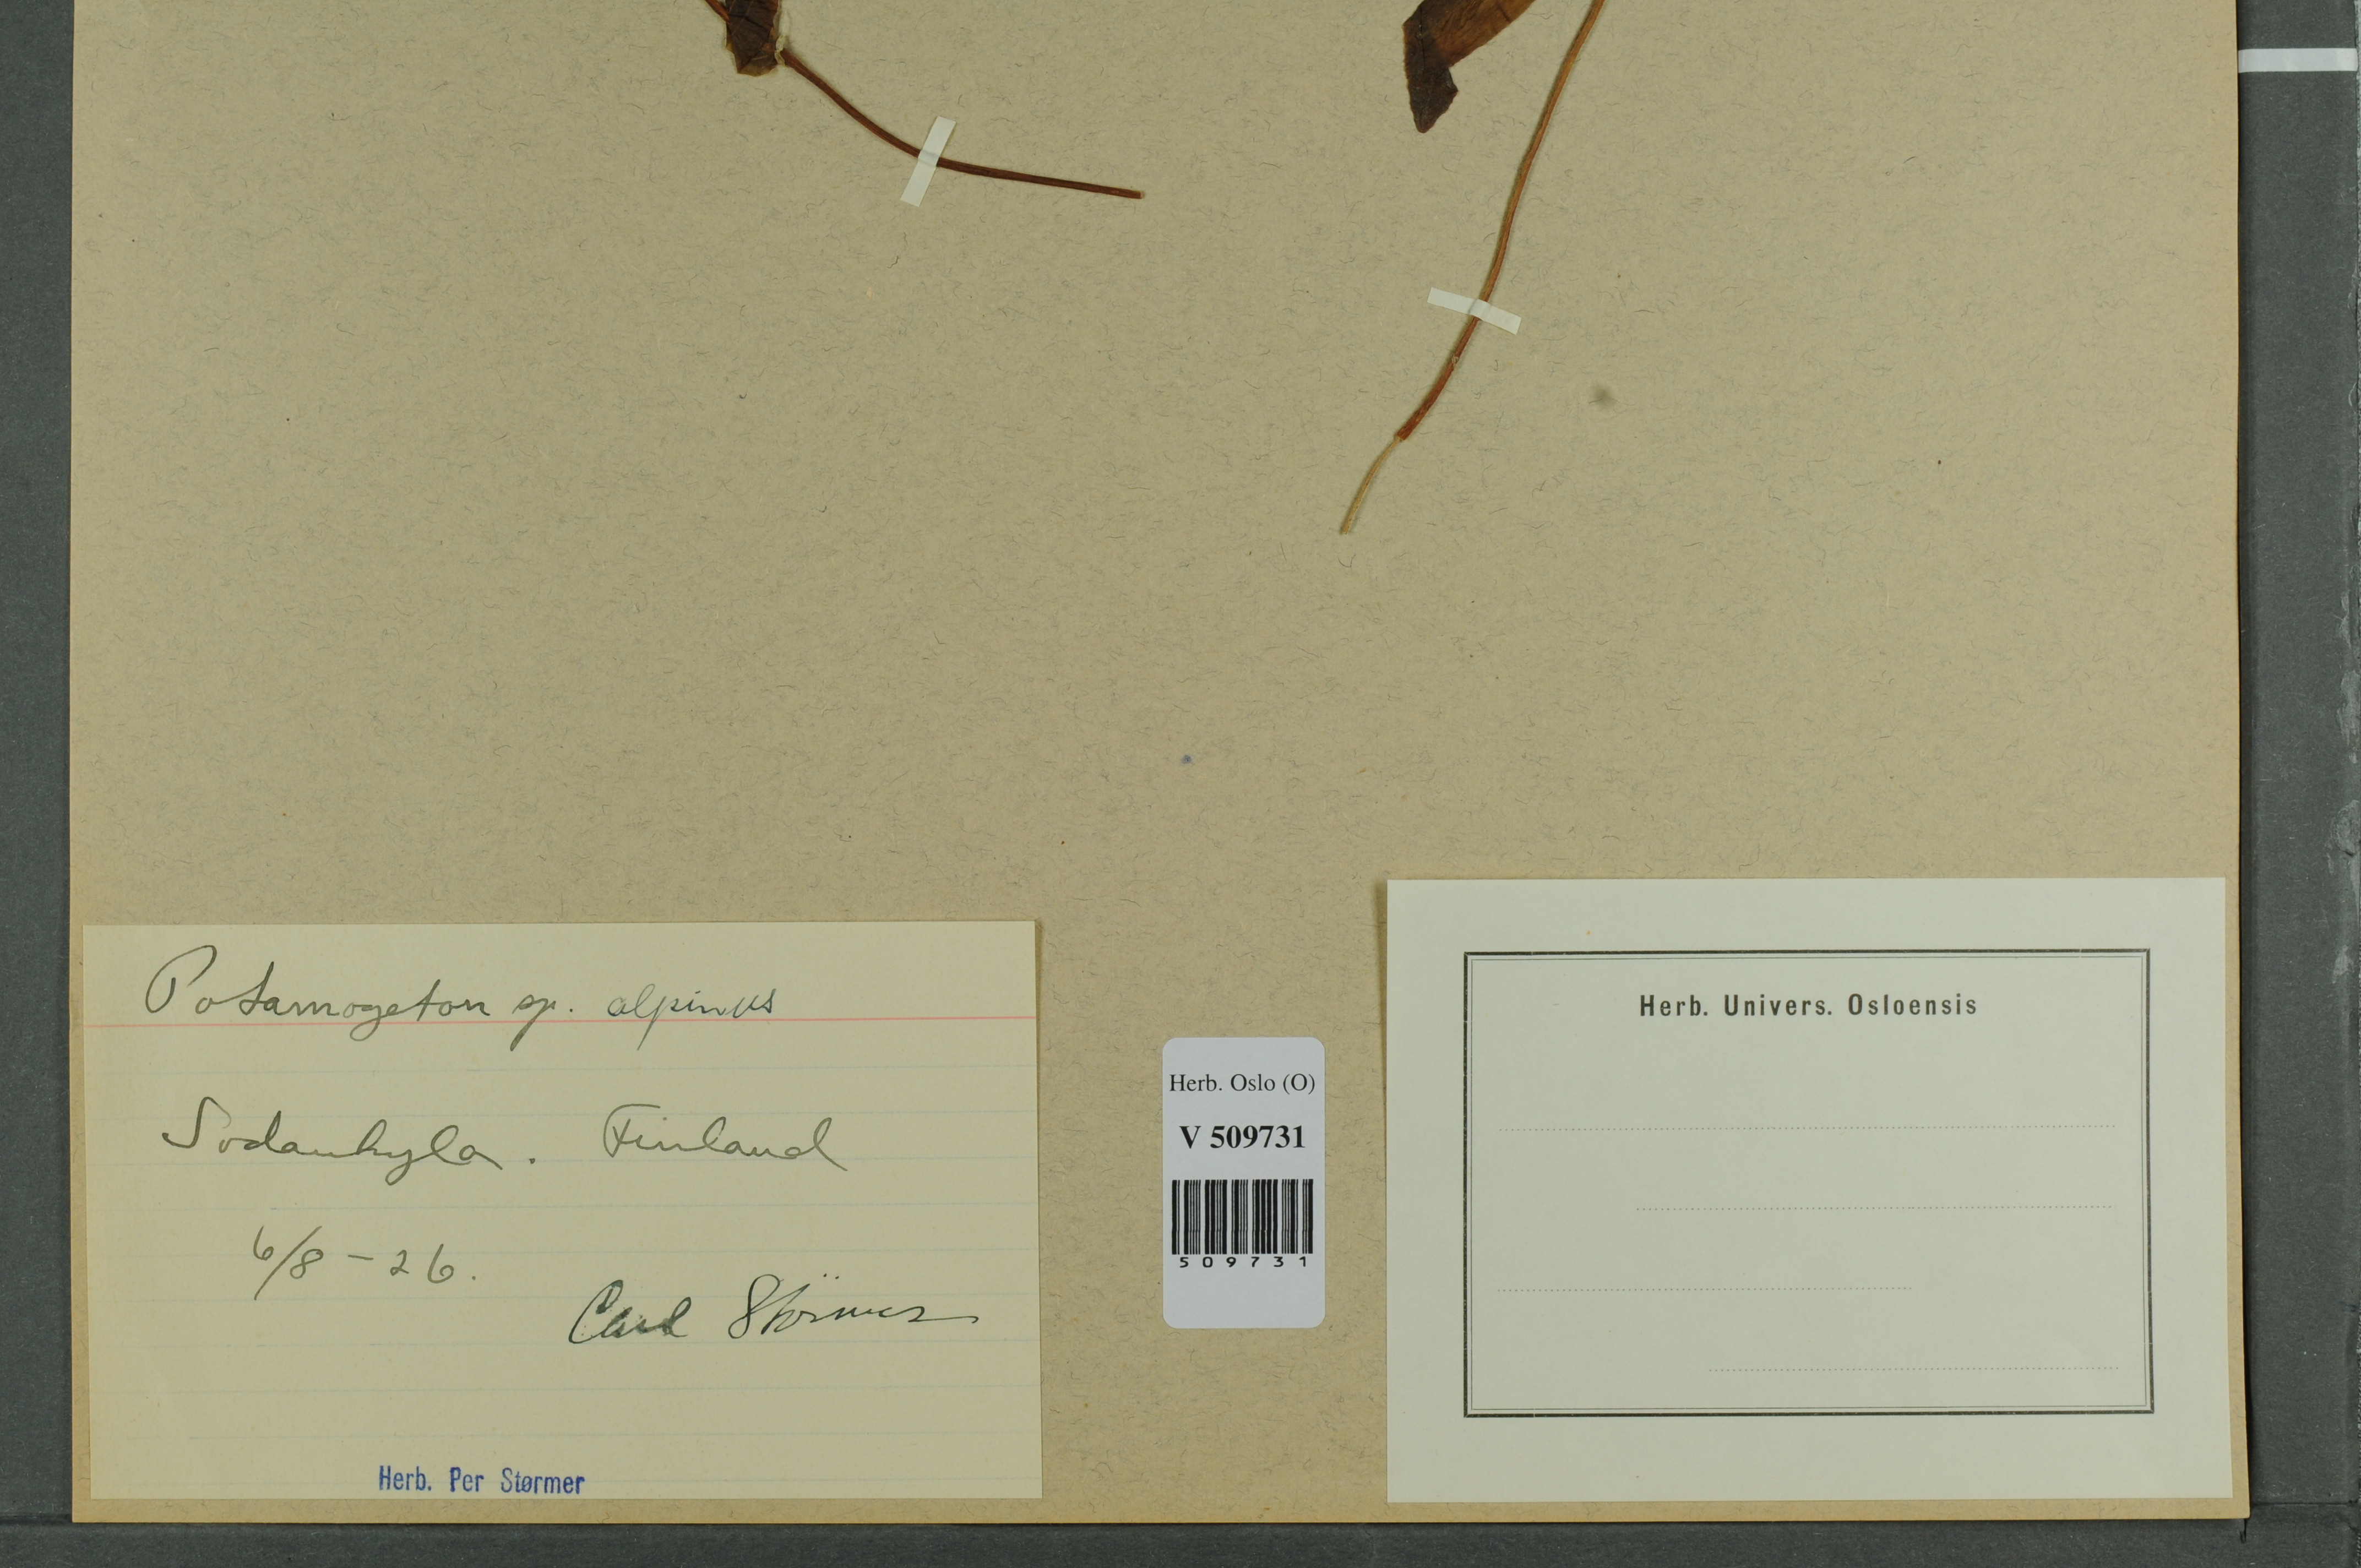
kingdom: Plantae
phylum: Tracheophyta
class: Liliopsida
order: Alismatales
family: Potamogetonaceae
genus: Potamogeton
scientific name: Potamogeton alpinus
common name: Red pondweed
